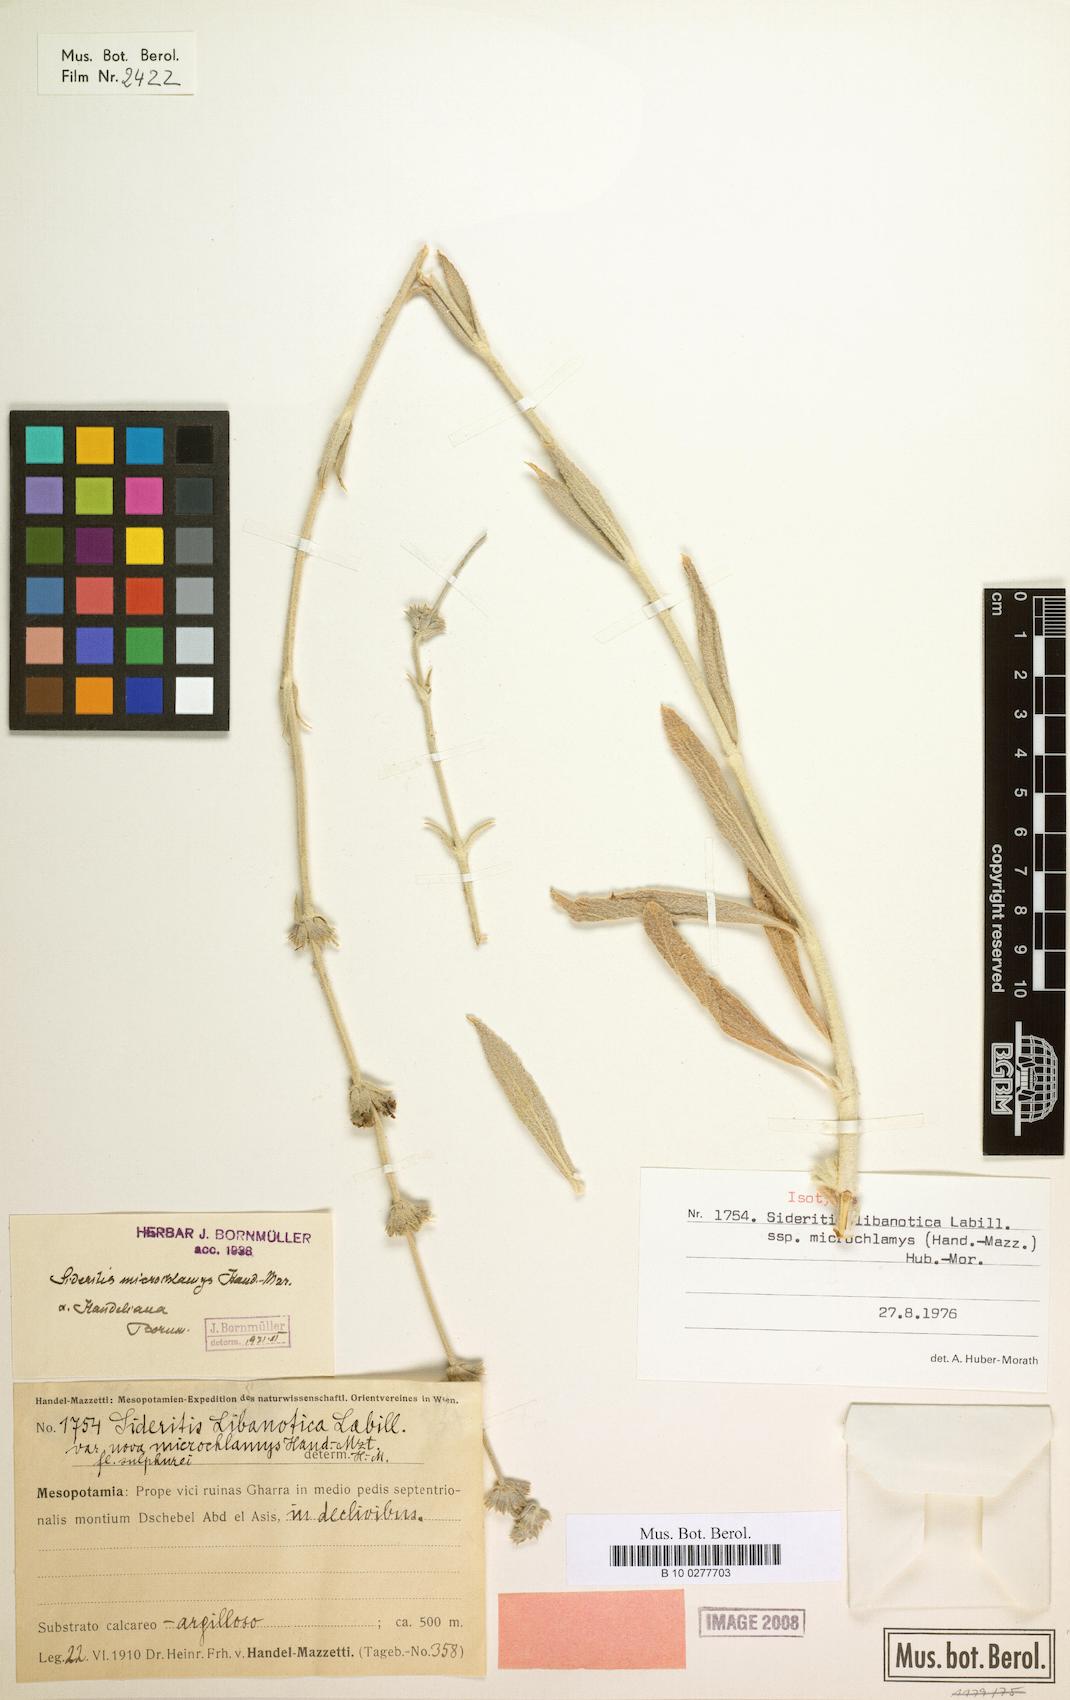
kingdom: Plantae
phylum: Tracheophyta
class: Magnoliopsida
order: Lamiales
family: Lamiaceae
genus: Sideritis
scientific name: Sideritis libanotica
